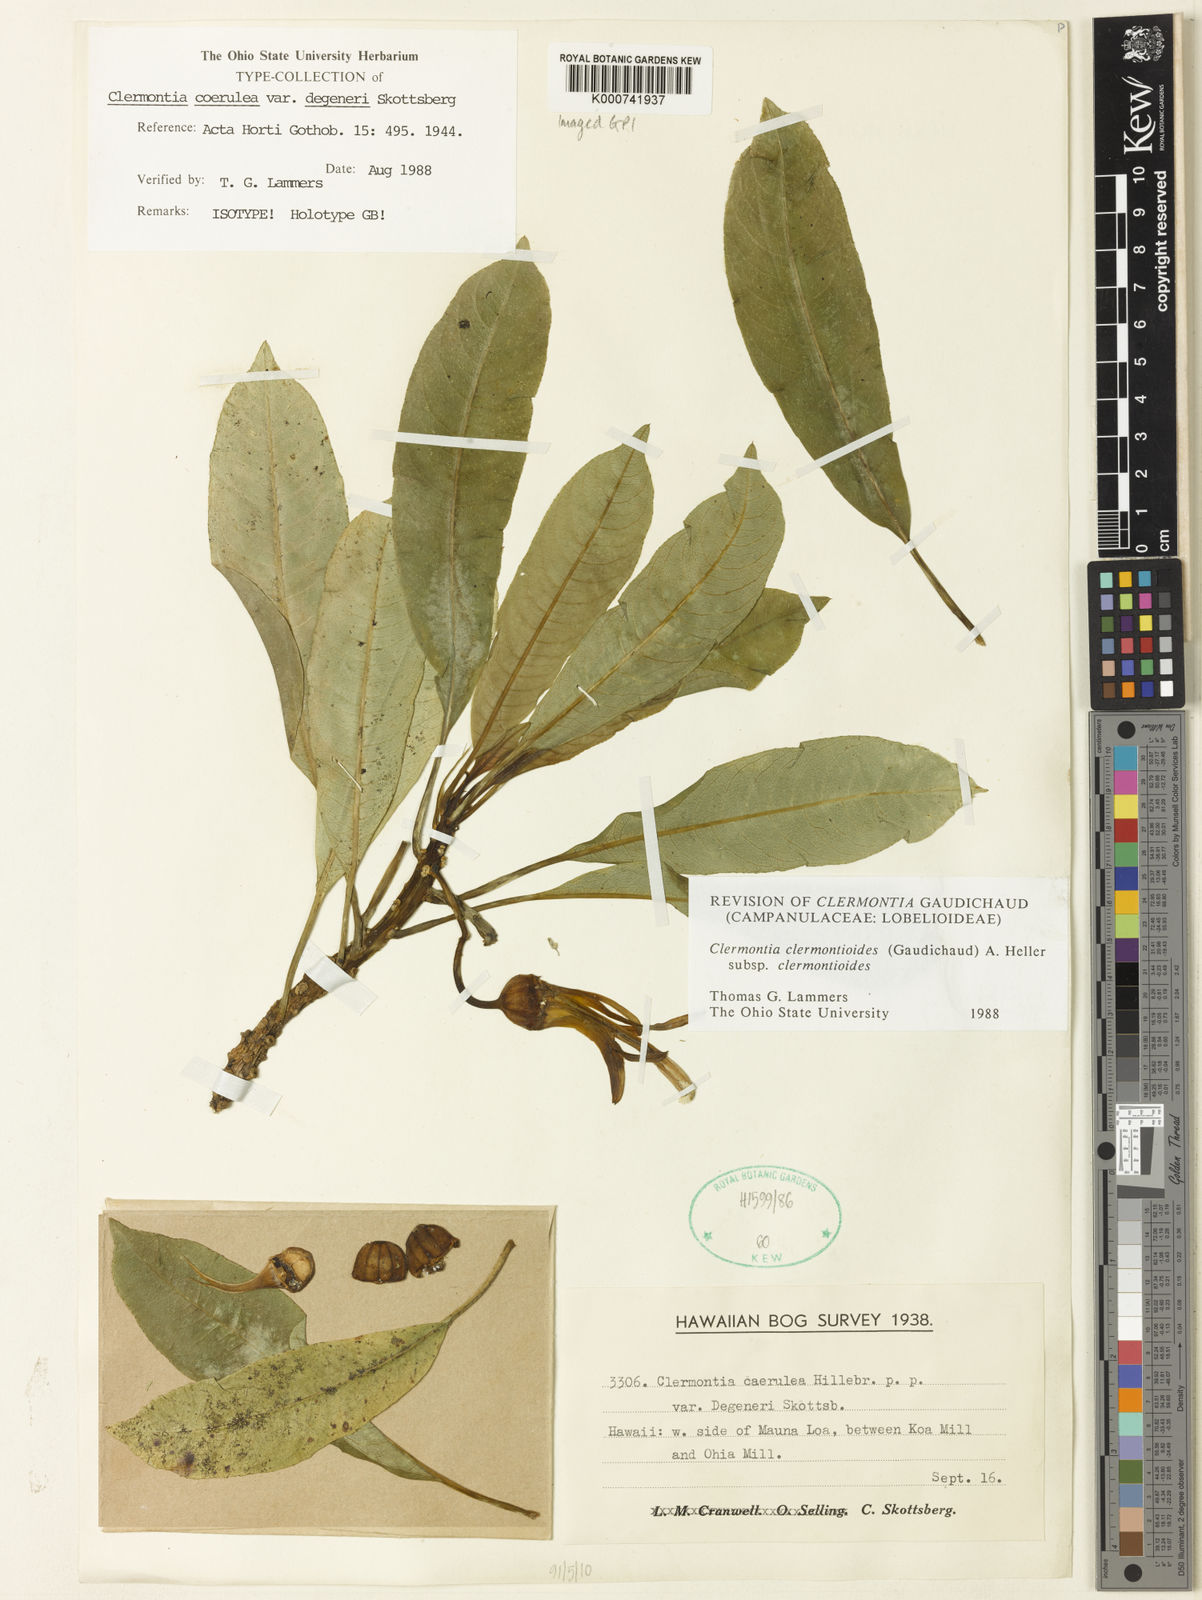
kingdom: Plantae
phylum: Tracheophyta
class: Magnoliopsida
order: Asterales
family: Campanulaceae
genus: Clermontia
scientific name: Clermontia clermontioides
